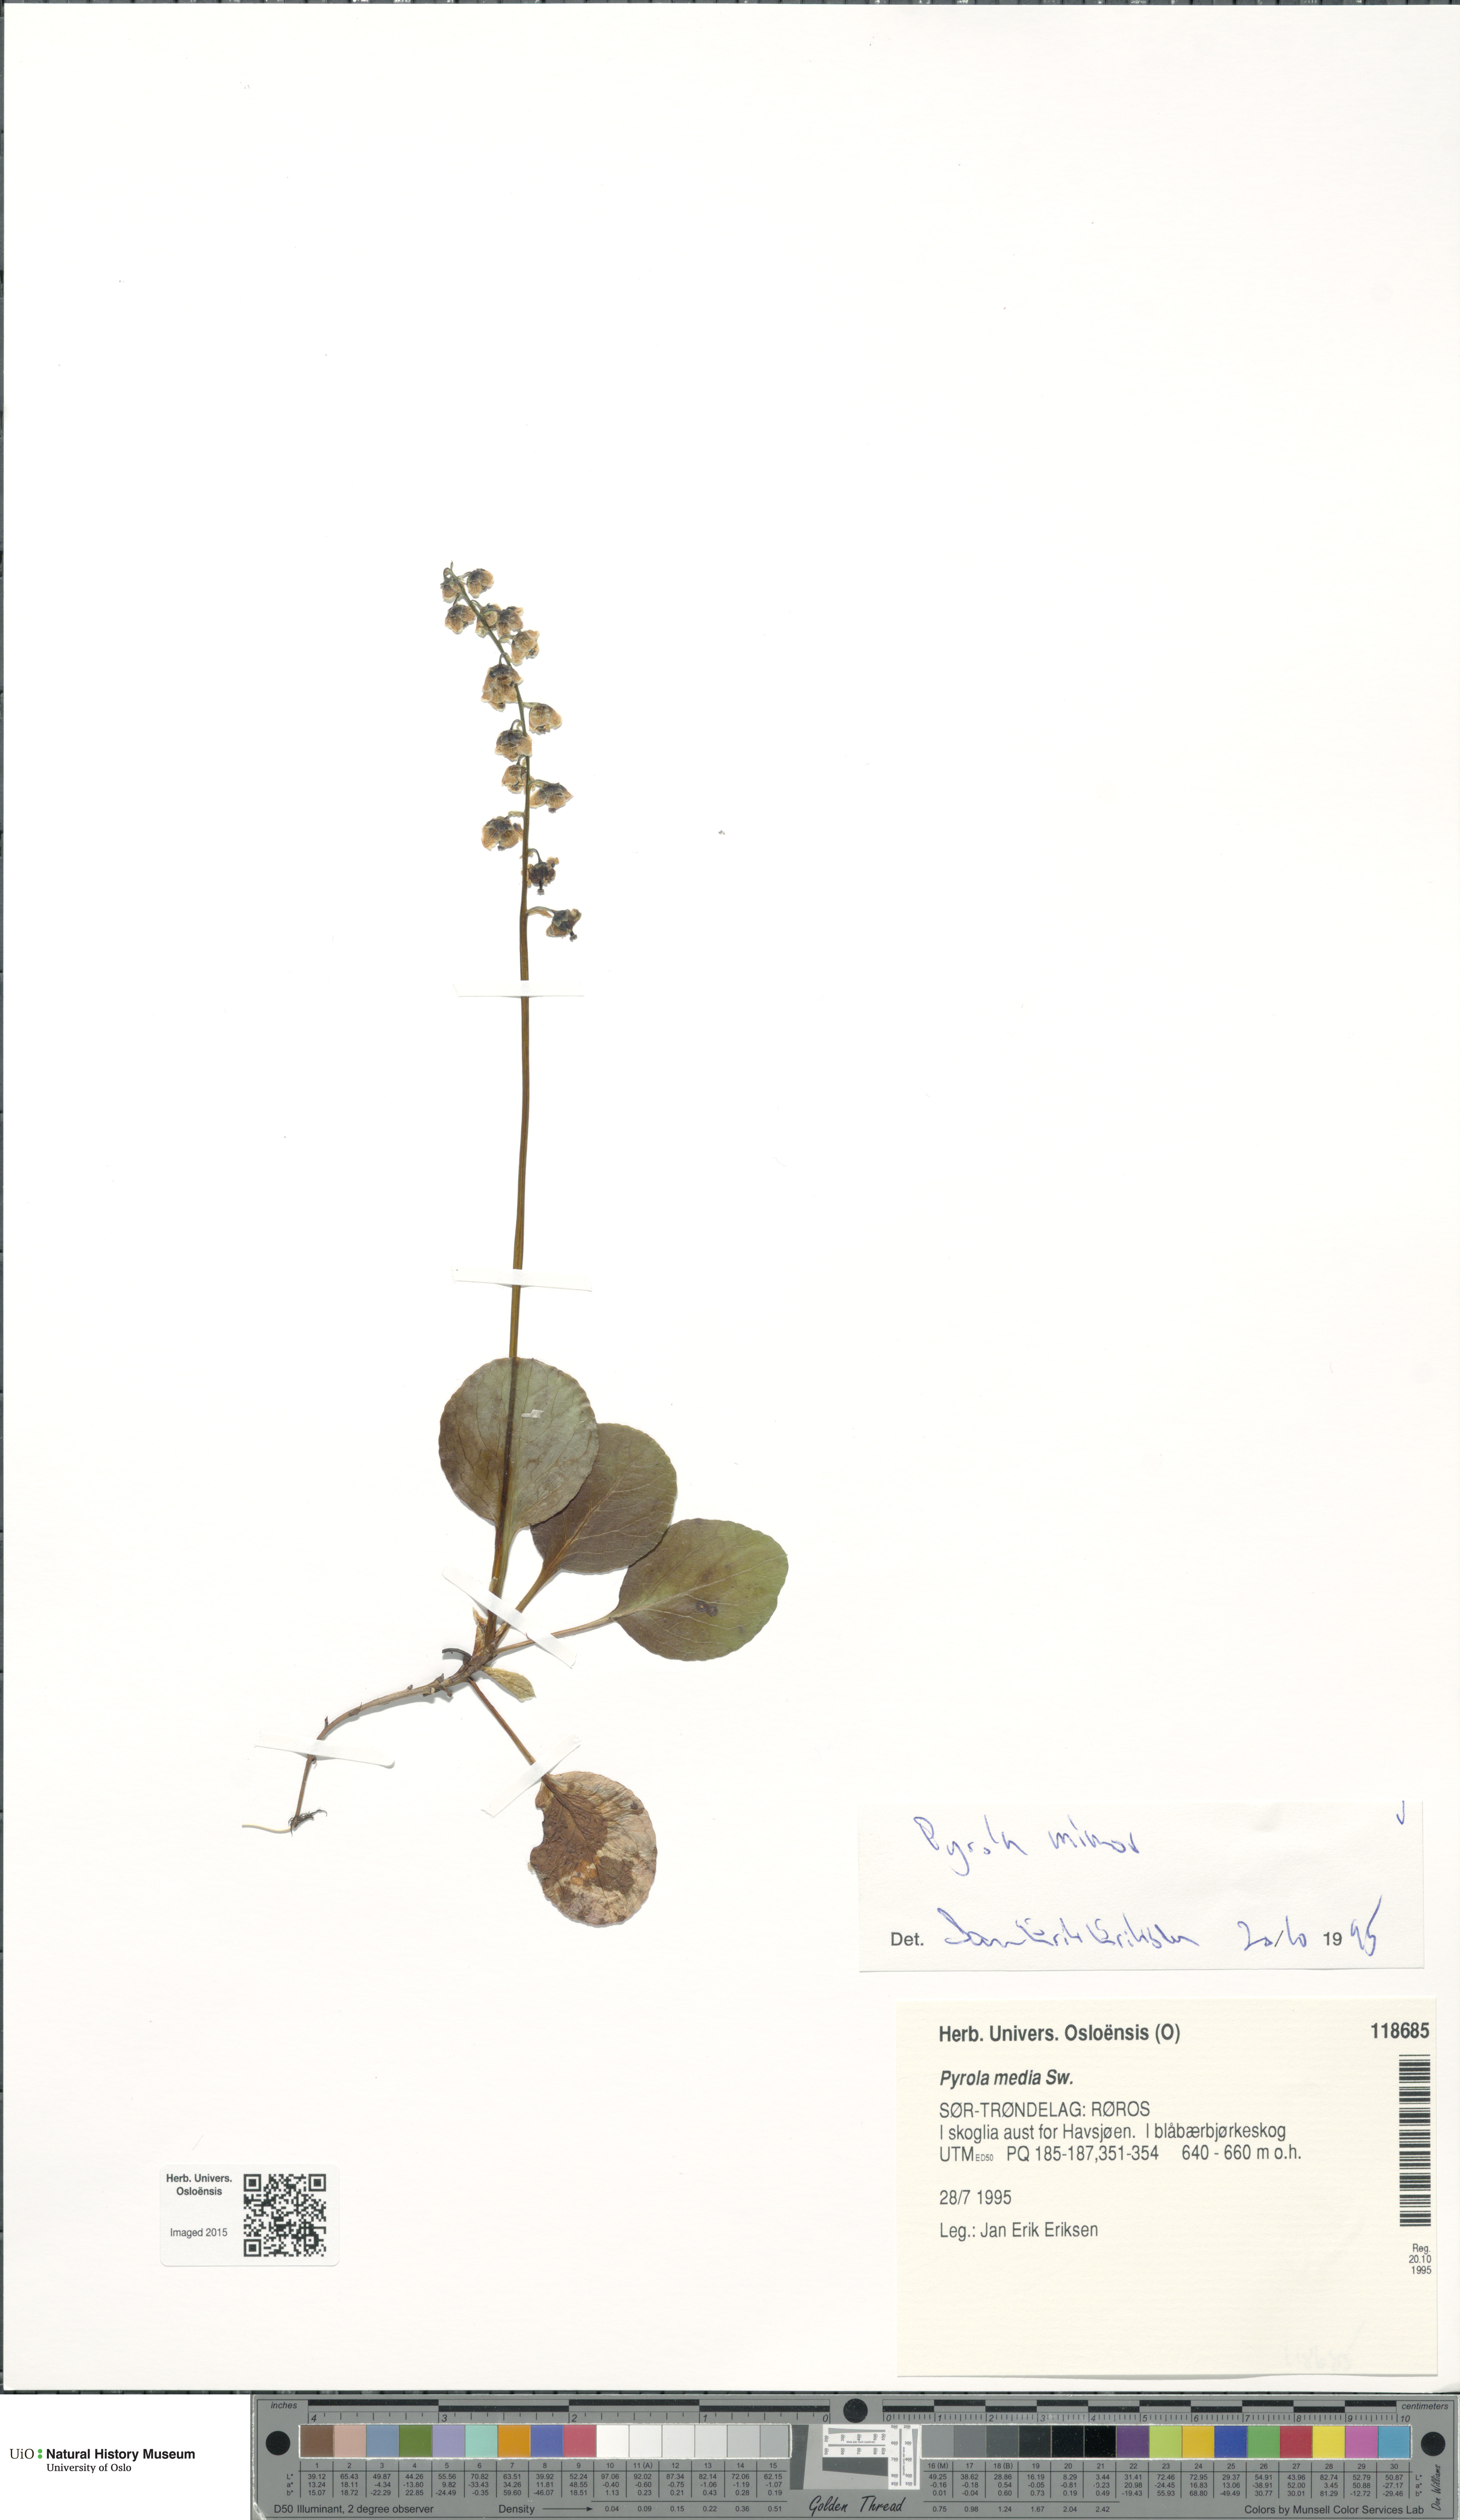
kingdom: Plantae
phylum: Tracheophyta
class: Magnoliopsida
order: Ericales
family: Ericaceae
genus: Pyrola
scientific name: Pyrola minor
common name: Common wintergreen
